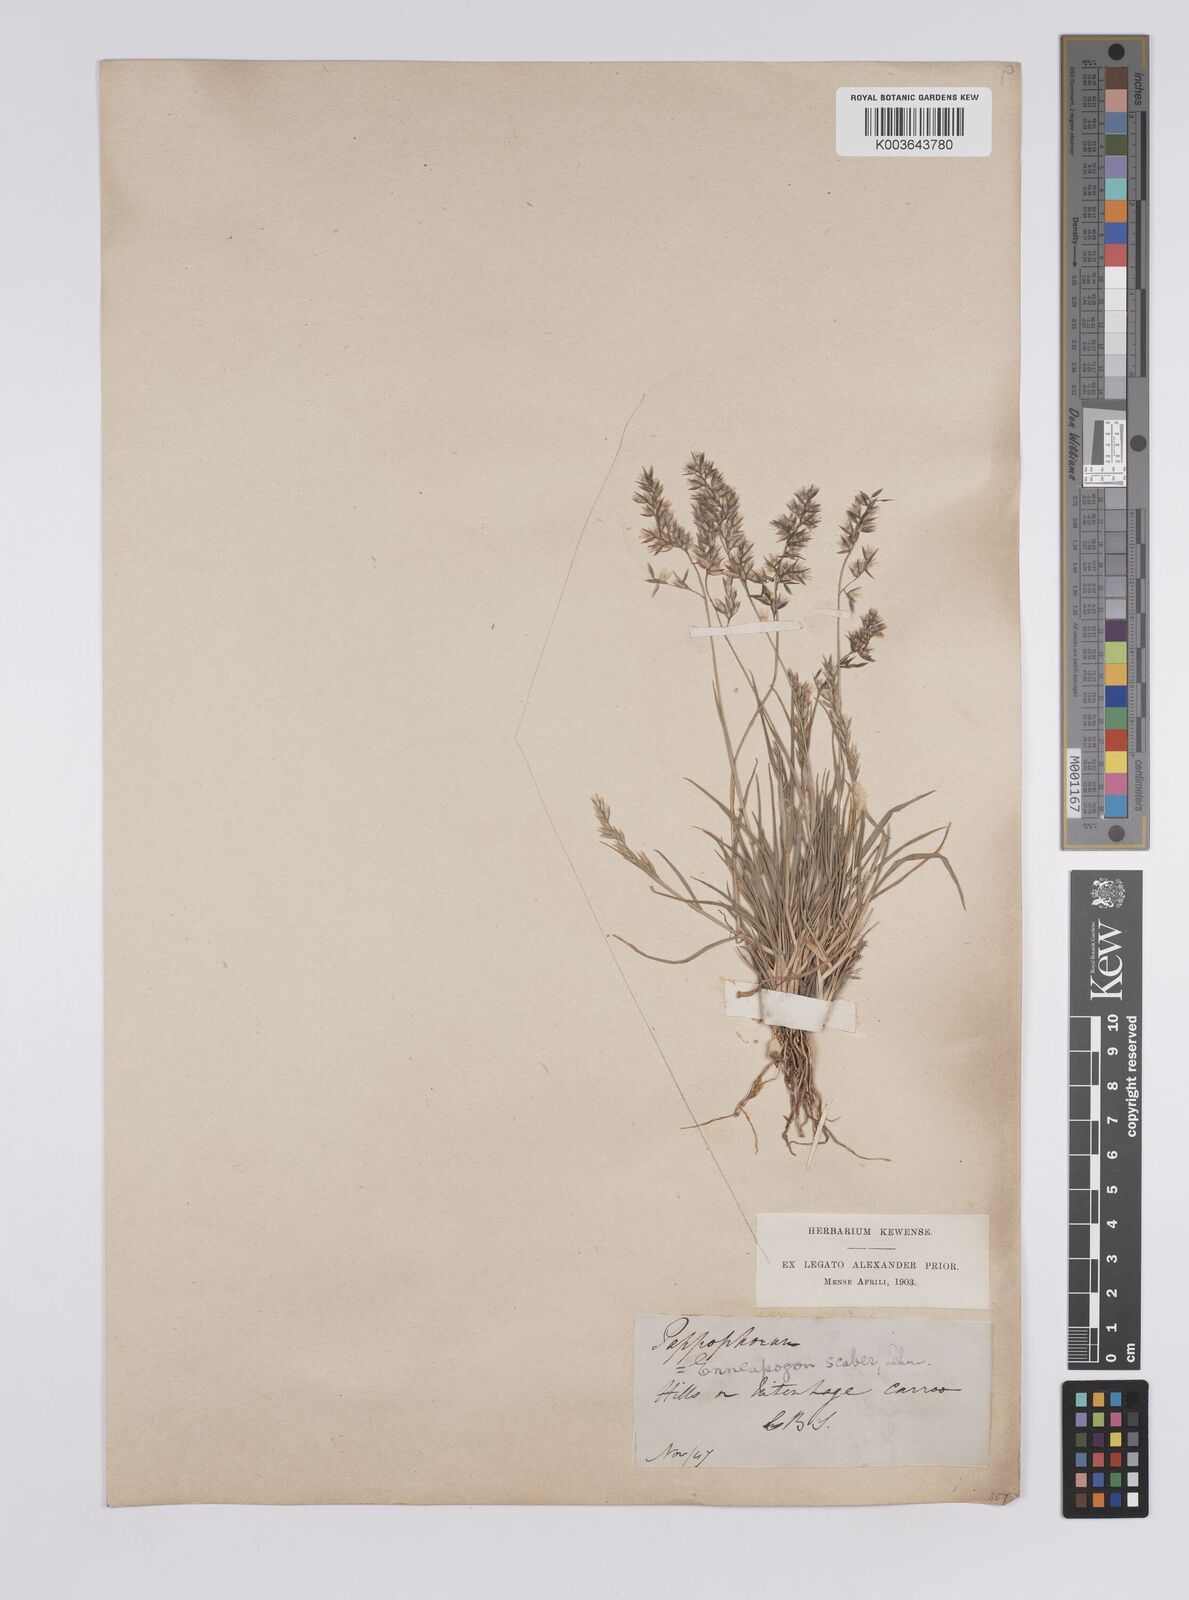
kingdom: Plantae
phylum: Tracheophyta
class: Liliopsida
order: Poales
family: Poaceae
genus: Enneapogon
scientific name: Enneapogon scaber
